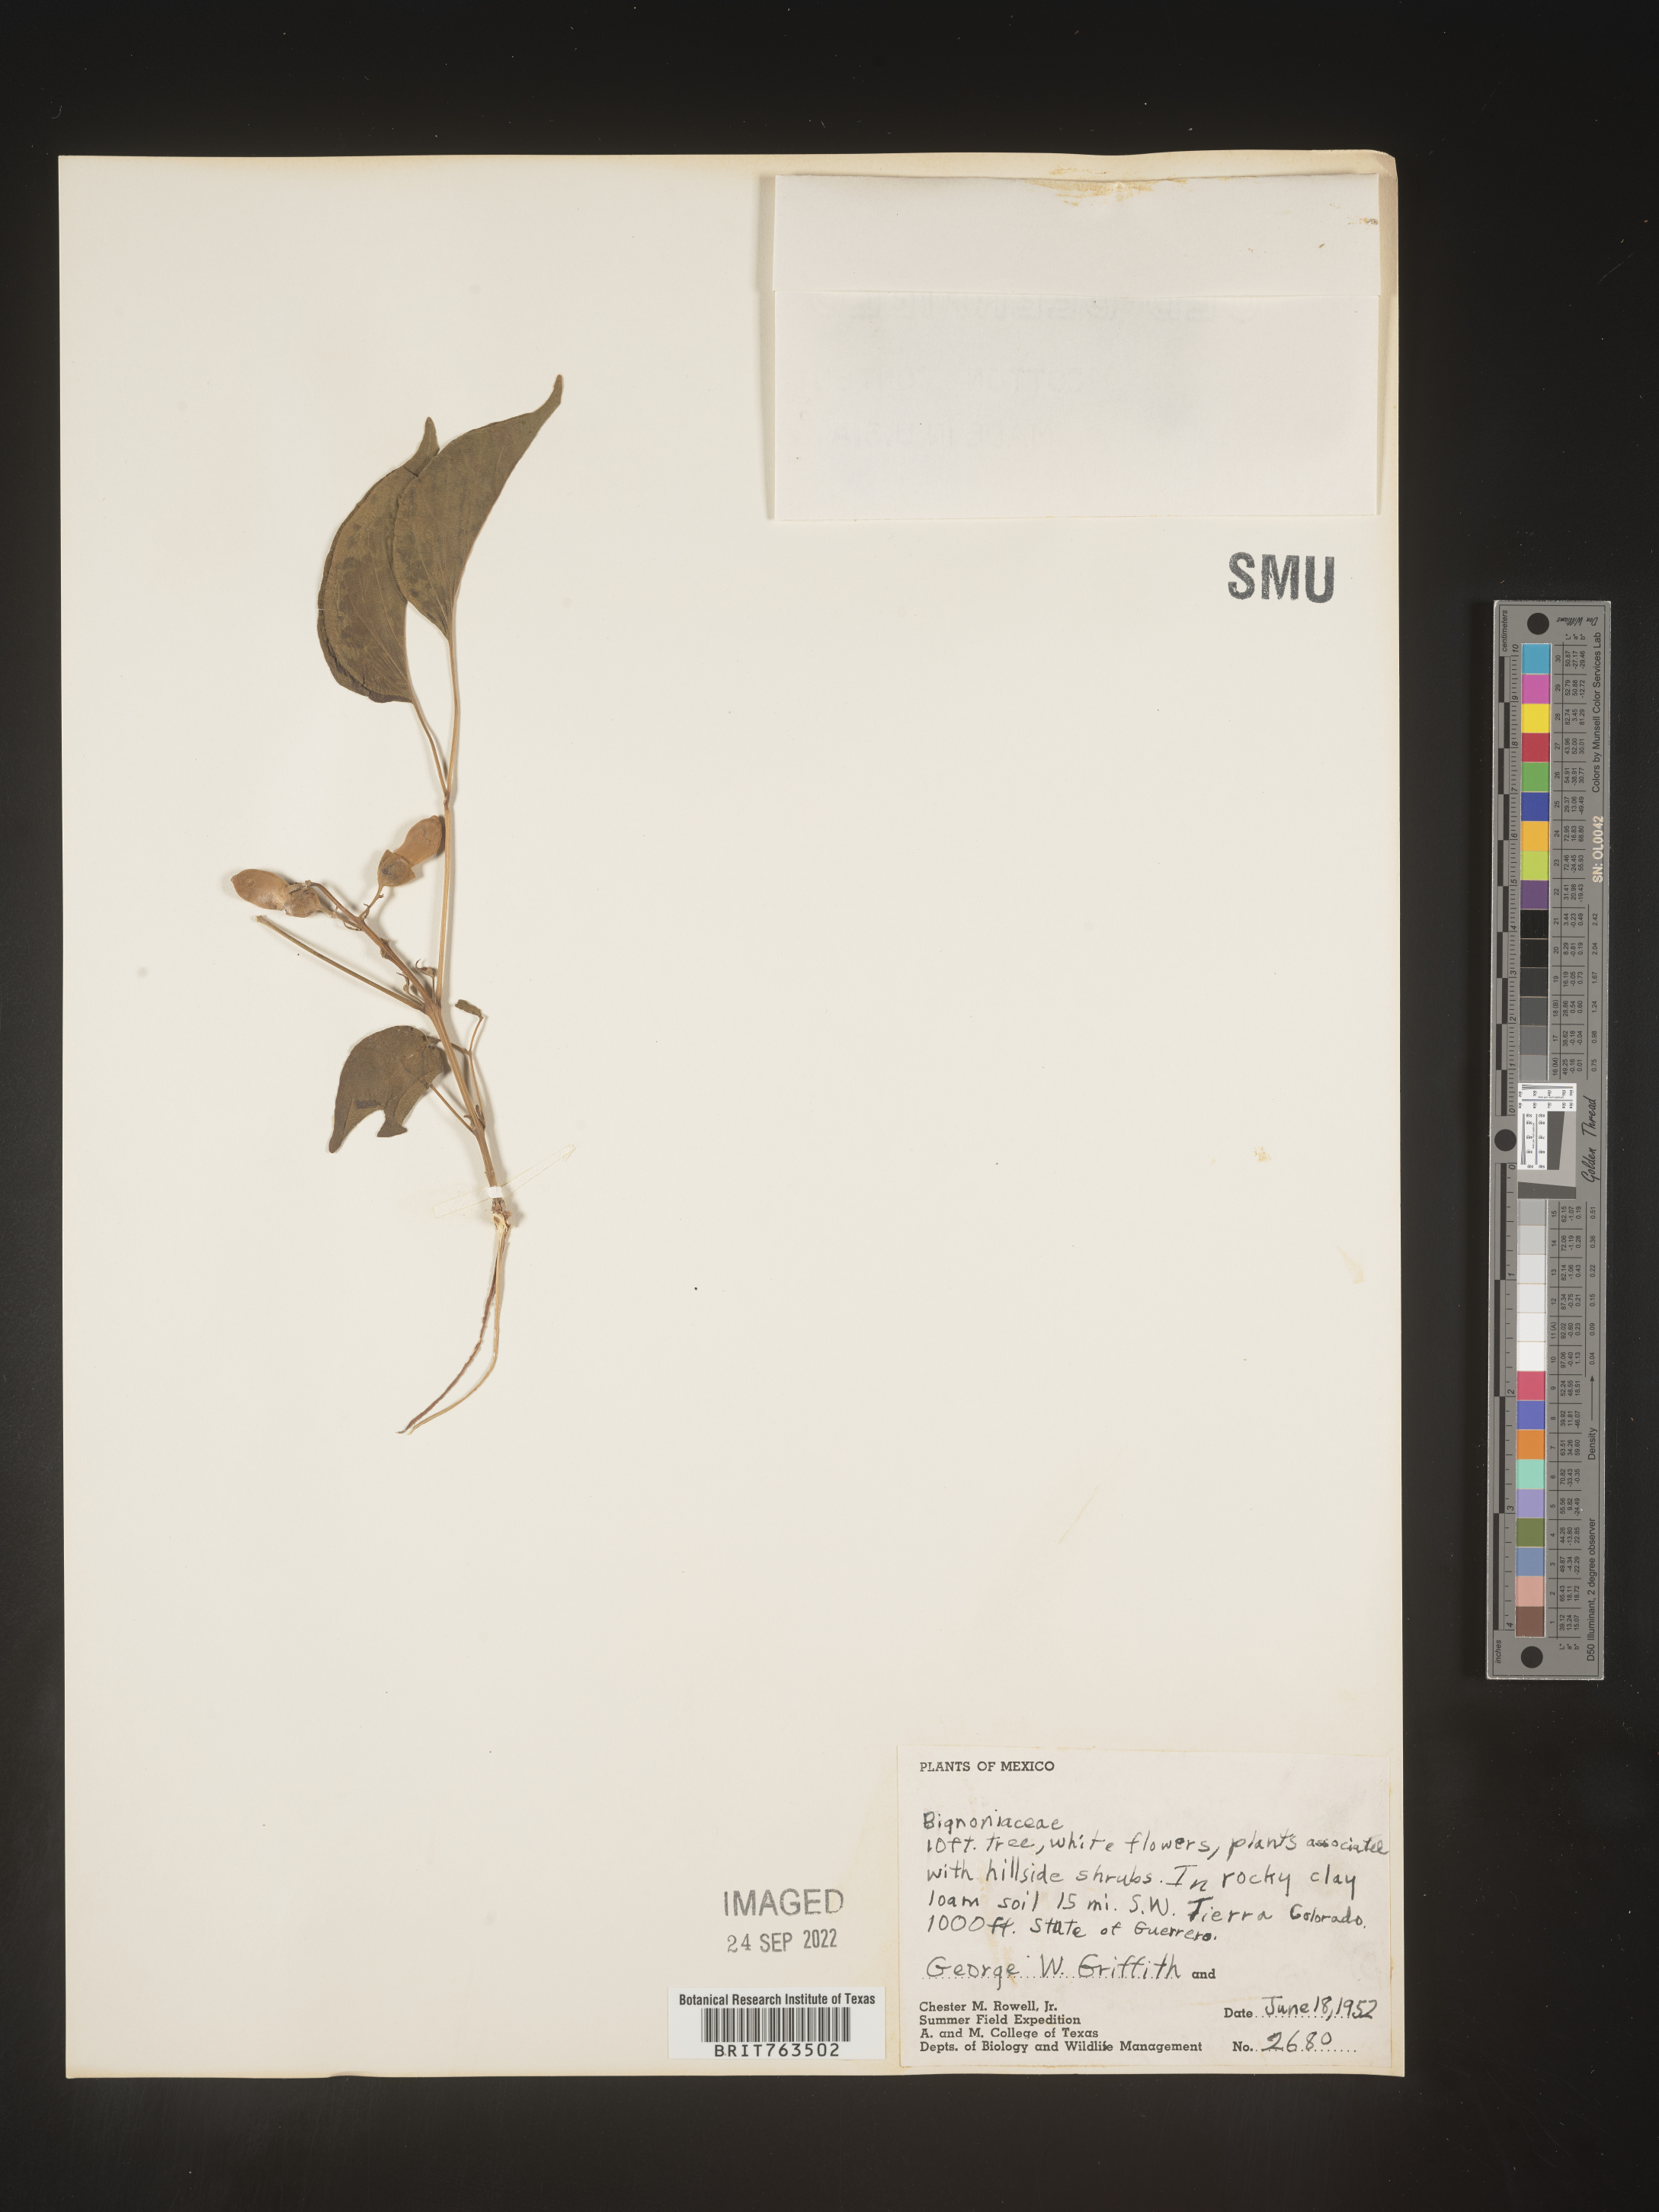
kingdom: Plantae
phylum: Tracheophyta
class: Magnoliopsida
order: Lamiales
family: Bignoniaceae
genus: Pithecoctenium
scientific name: Pithecoctenium
